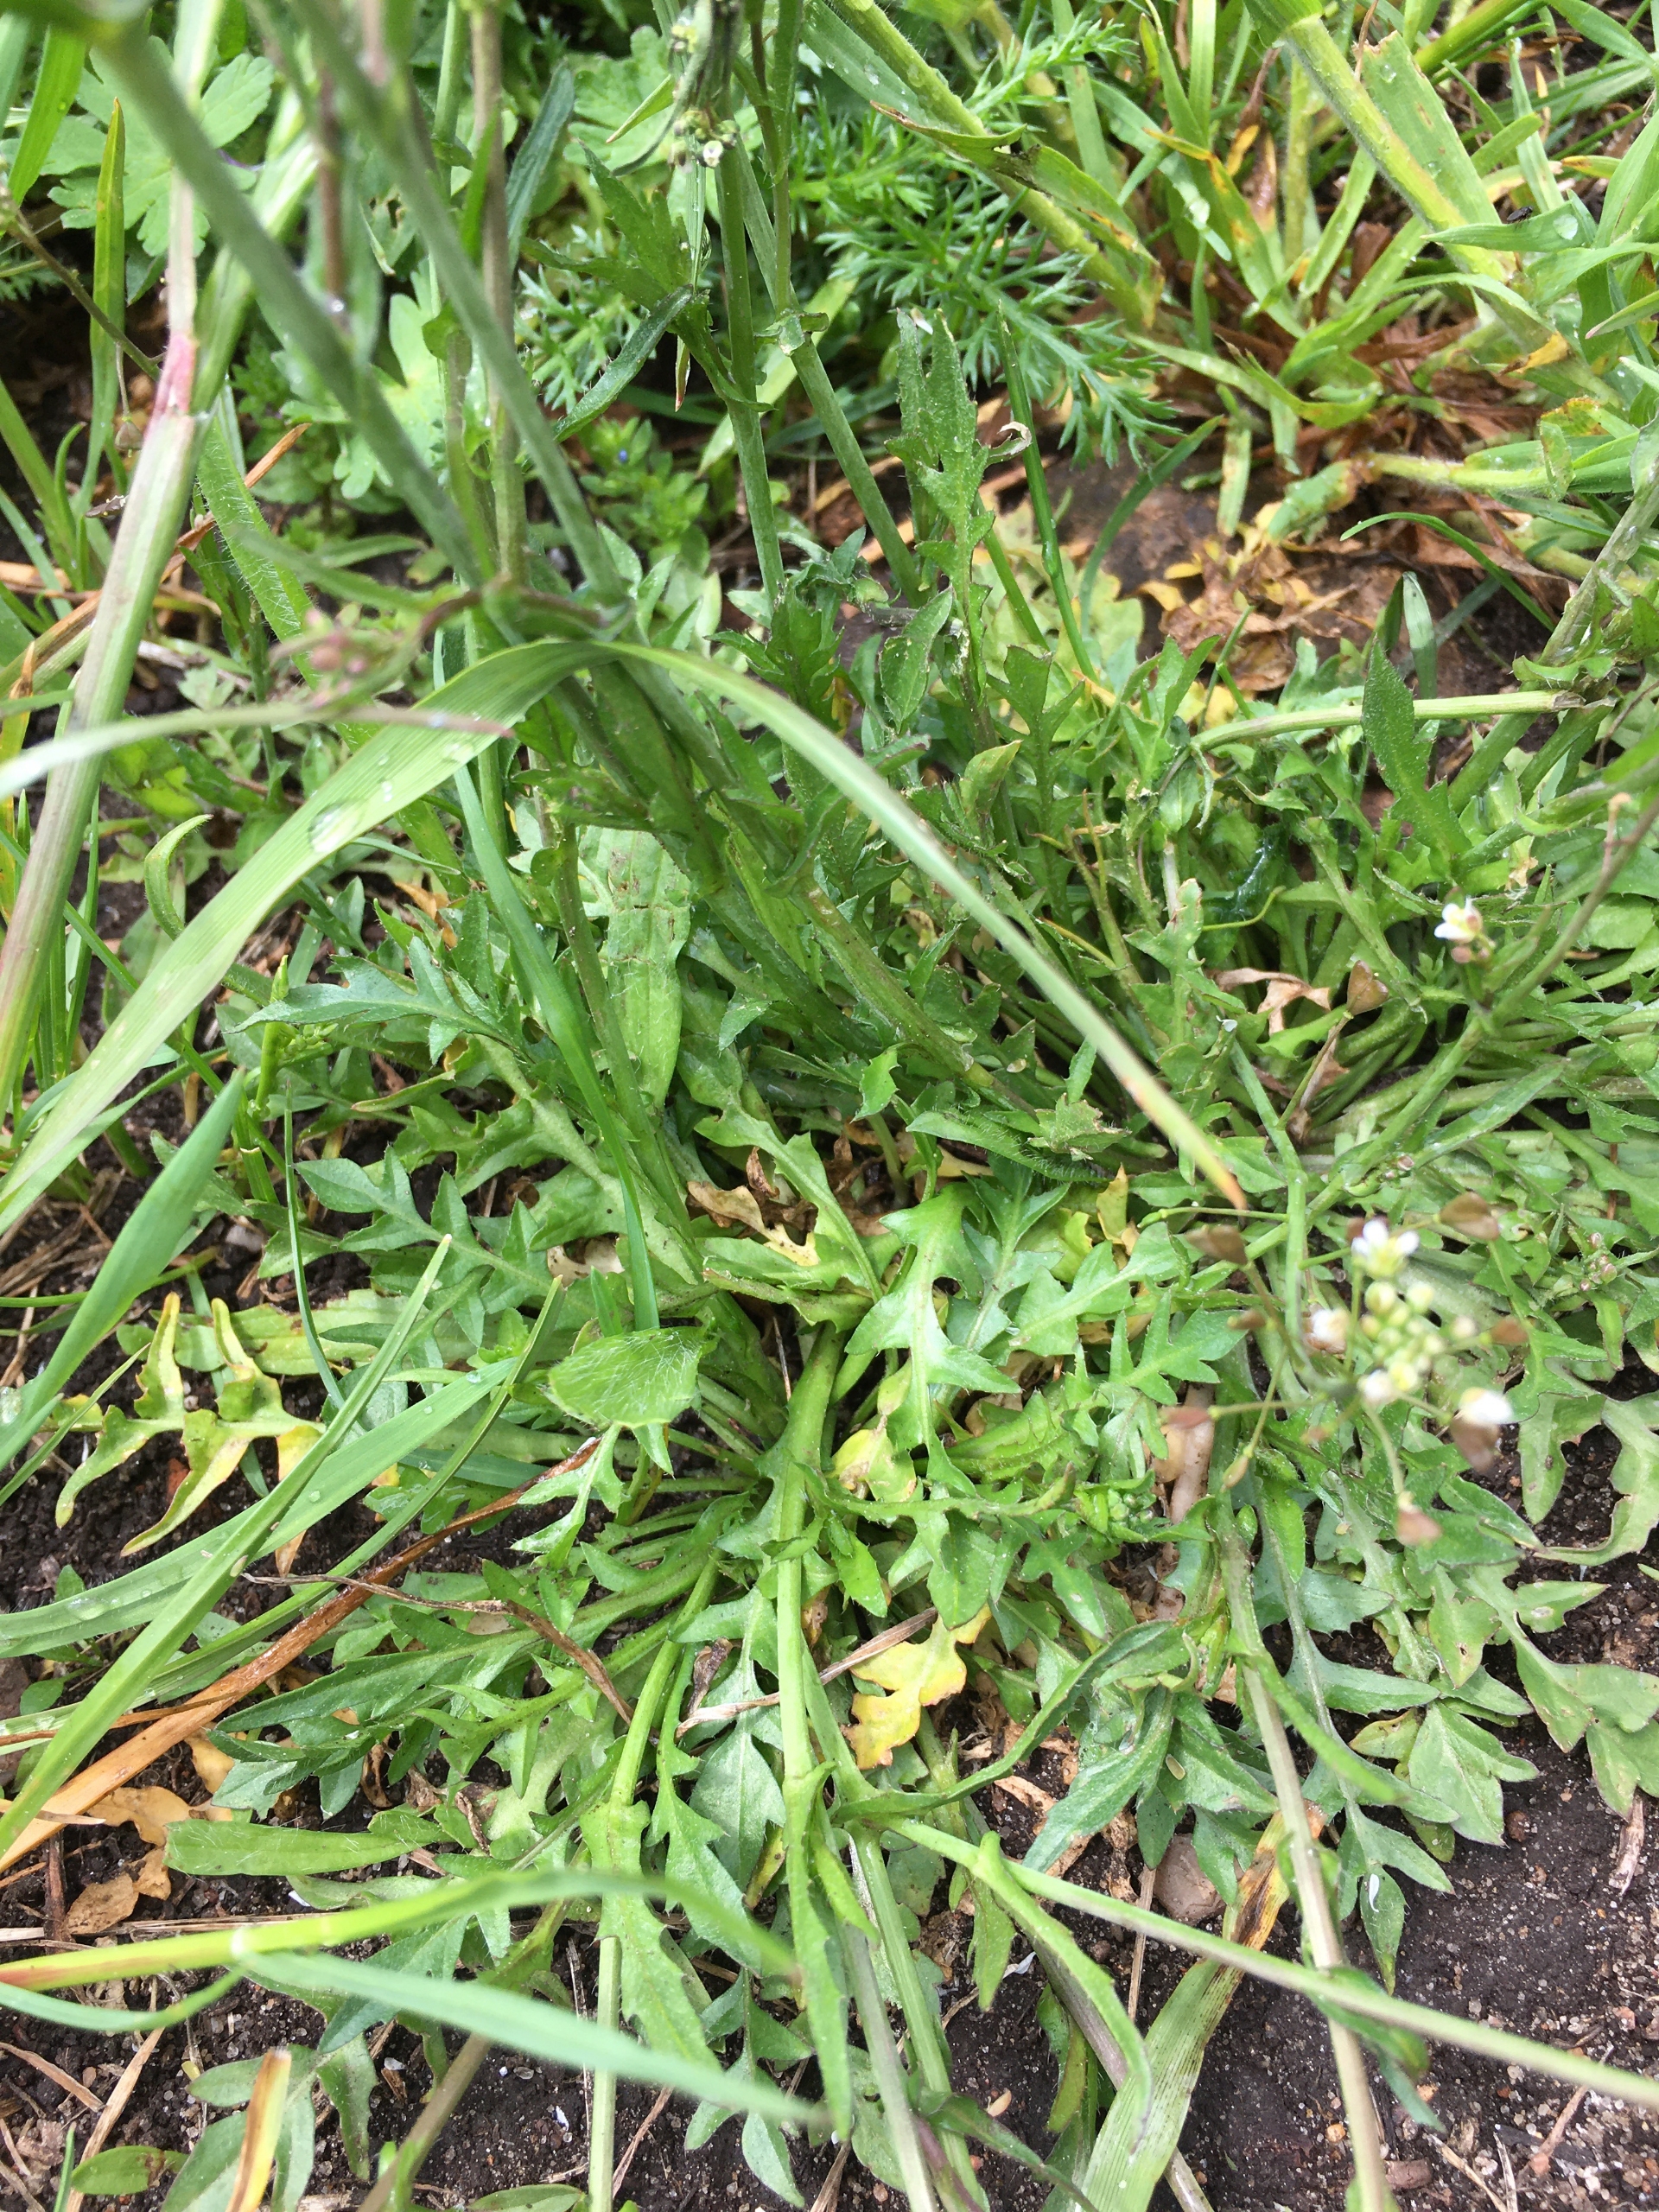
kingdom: Plantae
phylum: Tracheophyta
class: Magnoliopsida
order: Brassicales
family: Brassicaceae
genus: Capsella
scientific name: Capsella bursa-pastoris
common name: Hyrdetaske
